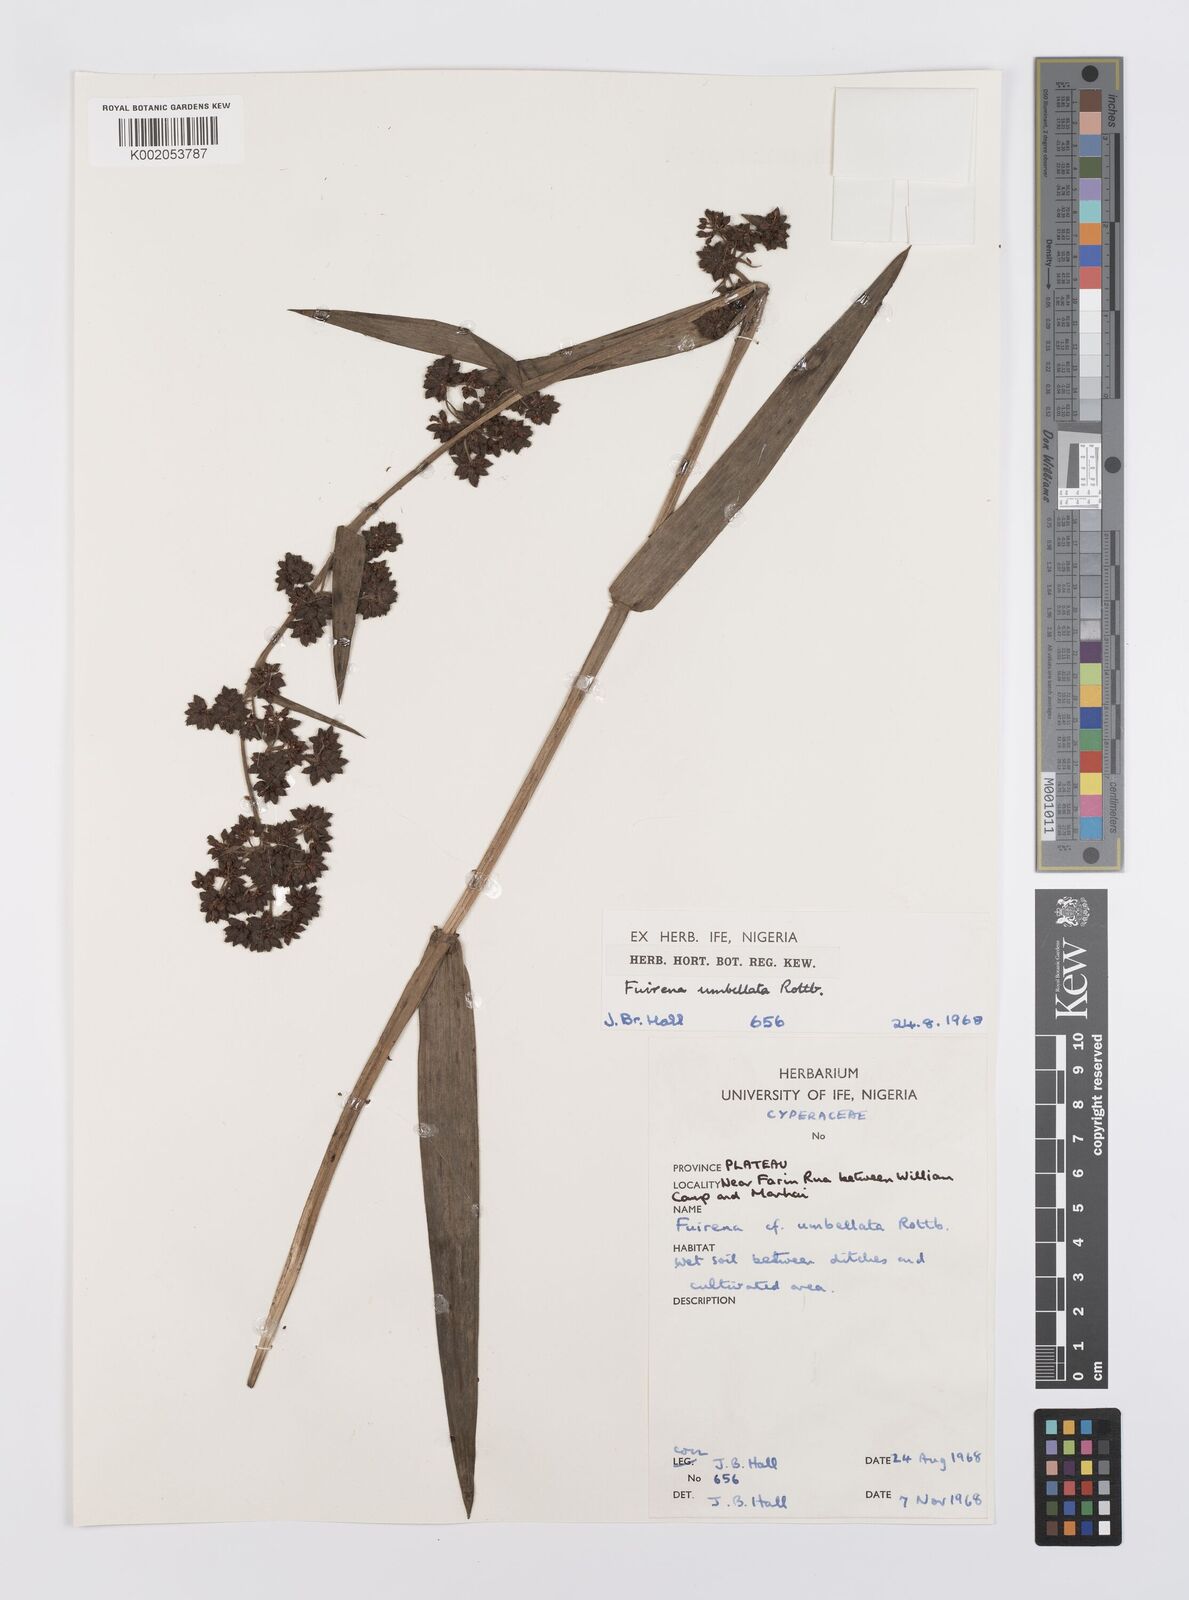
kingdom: Plantae
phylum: Tracheophyta
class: Liliopsida
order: Poales
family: Cyperaceae
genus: Fuirena
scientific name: Fuirena umbellata
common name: Yefen
